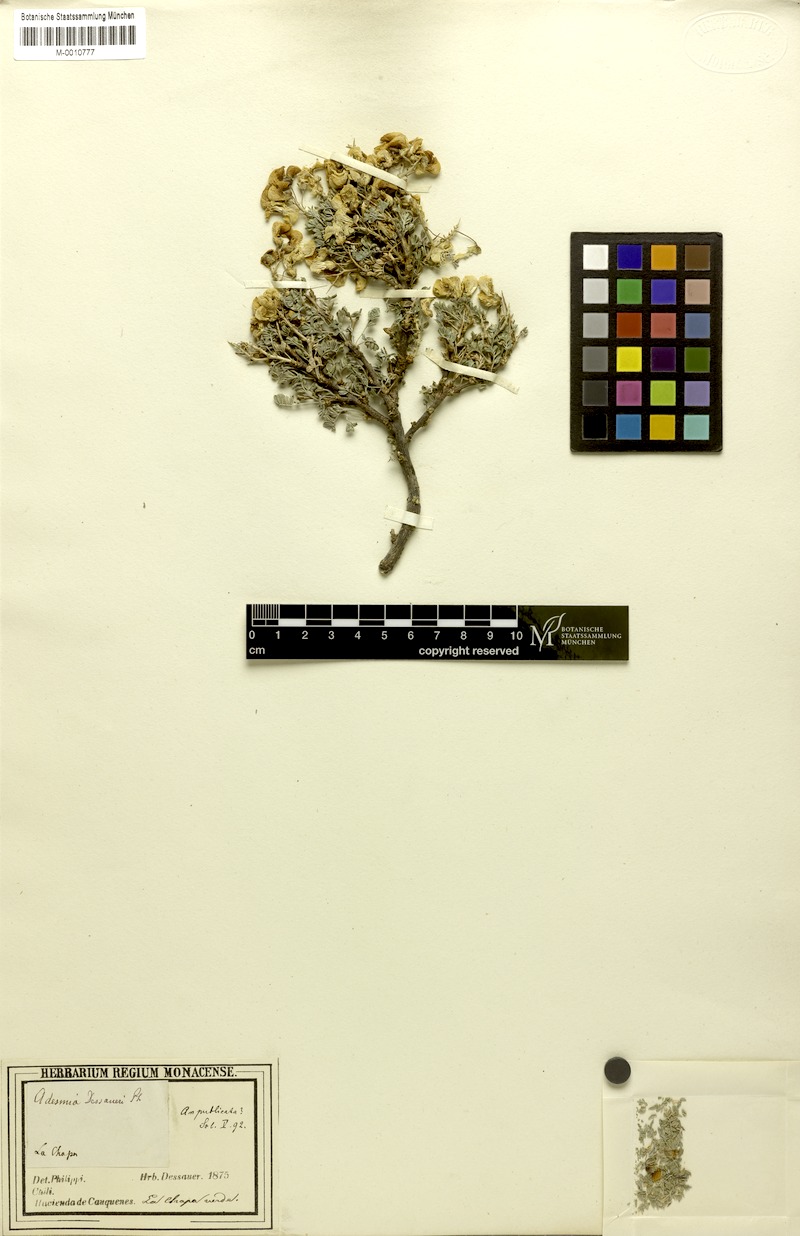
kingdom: Plantae
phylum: Tracheophyta
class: Magnoliopsida
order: Fabales
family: Fabaceae
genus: Adesmia
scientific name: Adesmia dessaueri
